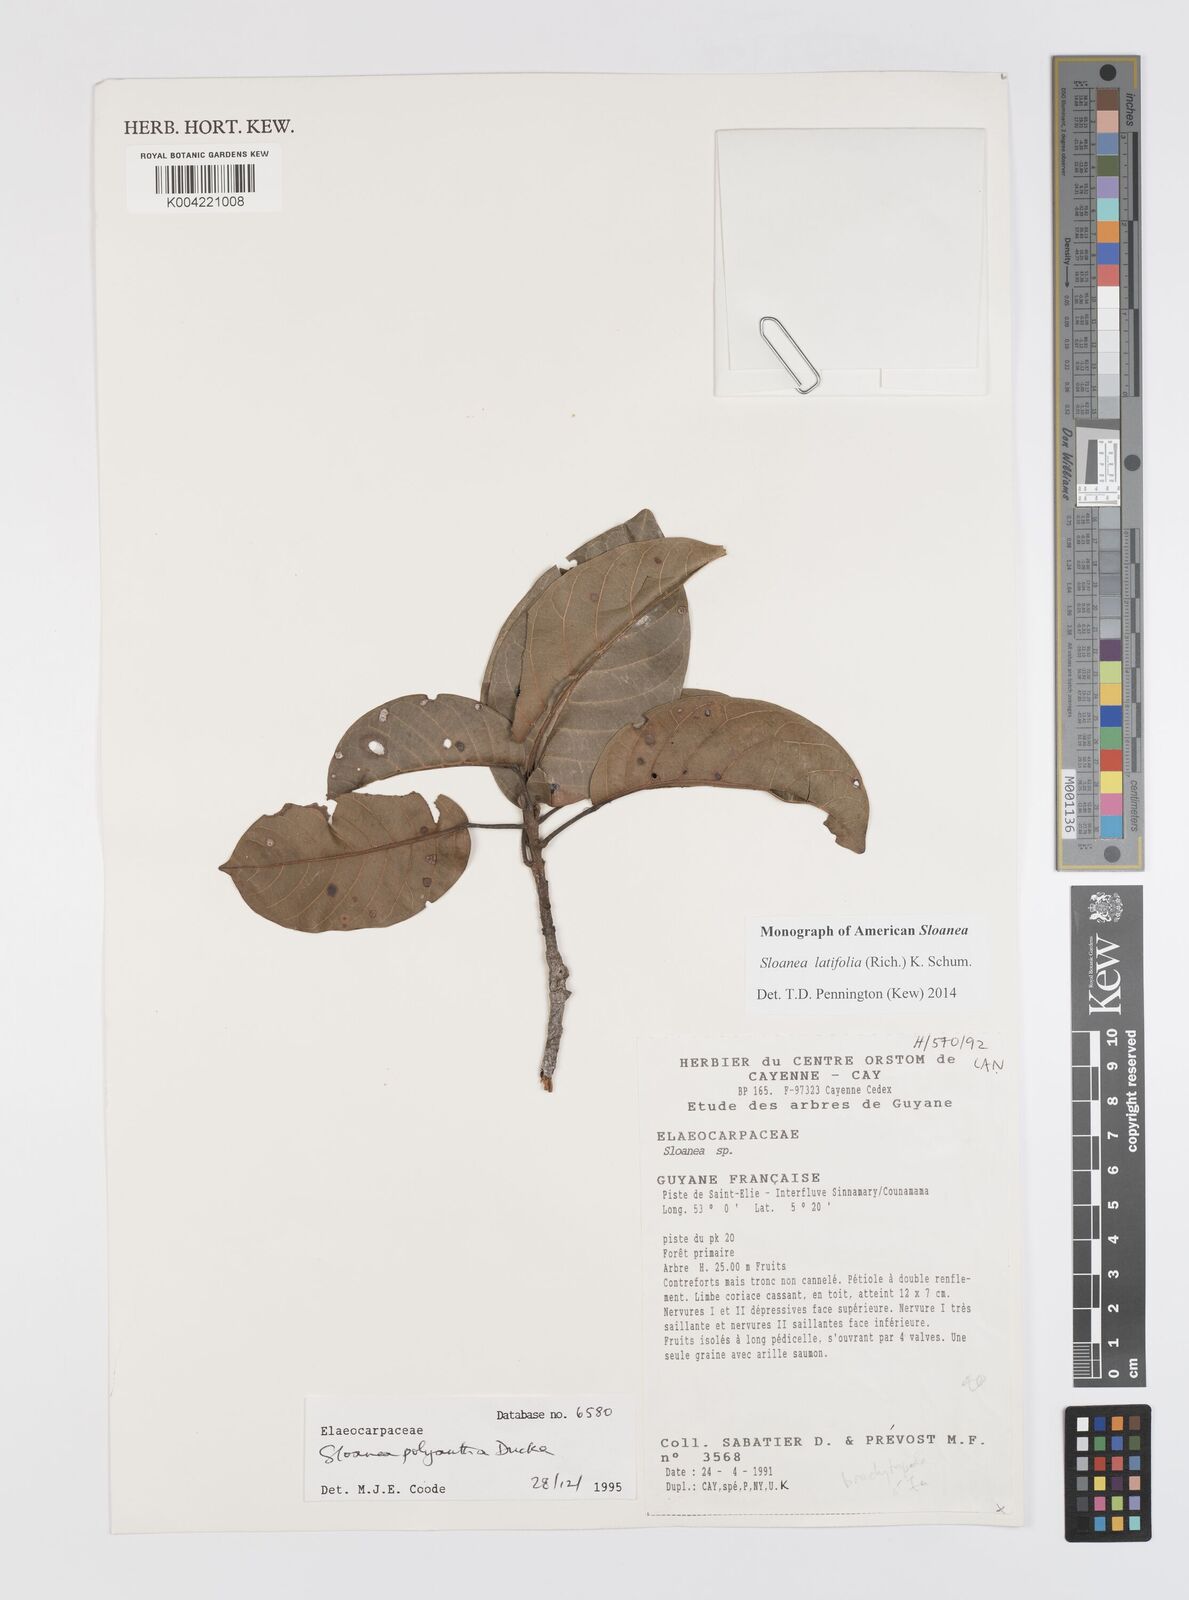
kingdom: Plantae
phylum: Tracheophyta
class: Magnoliopsida
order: Oxalidales
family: Elaeocarpaceae
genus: Sloanea
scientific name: Sloanea latifolia
